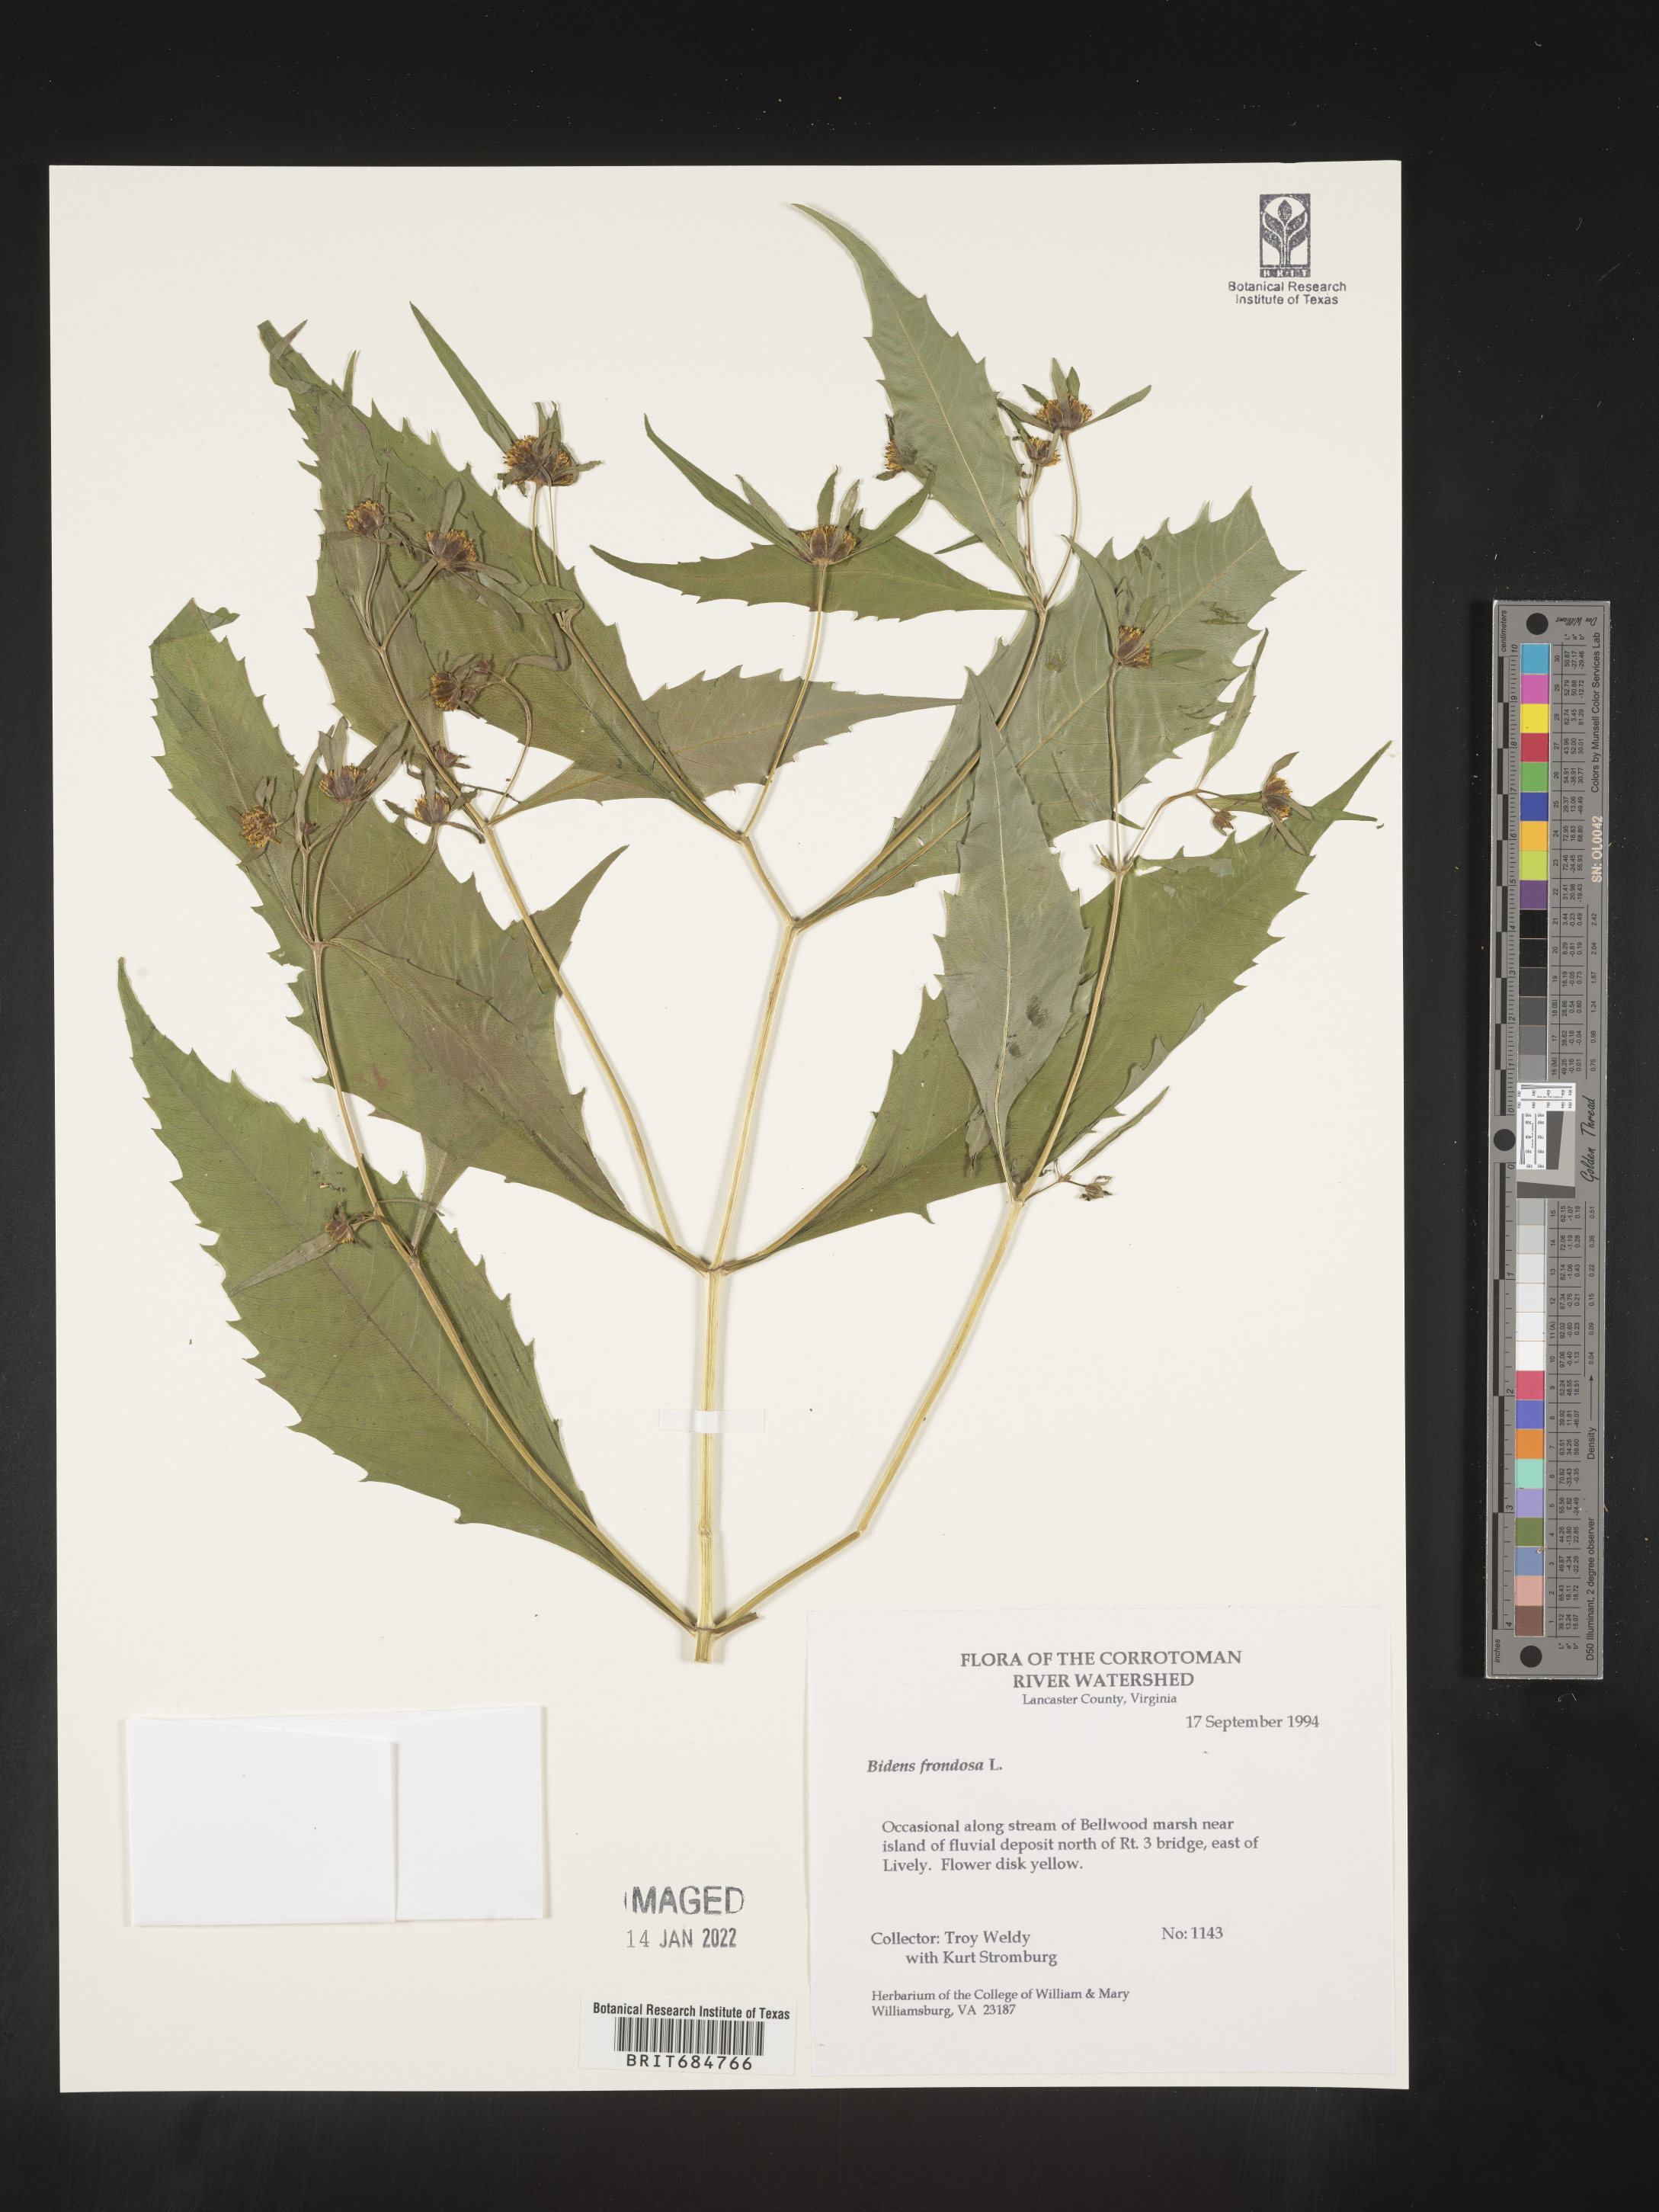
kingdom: Plantae
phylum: Tracheophyta
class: Magnoliopsida
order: Asterales
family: Asteraceae
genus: Bidens
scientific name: Bidens frondosa
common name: Beggarticks
